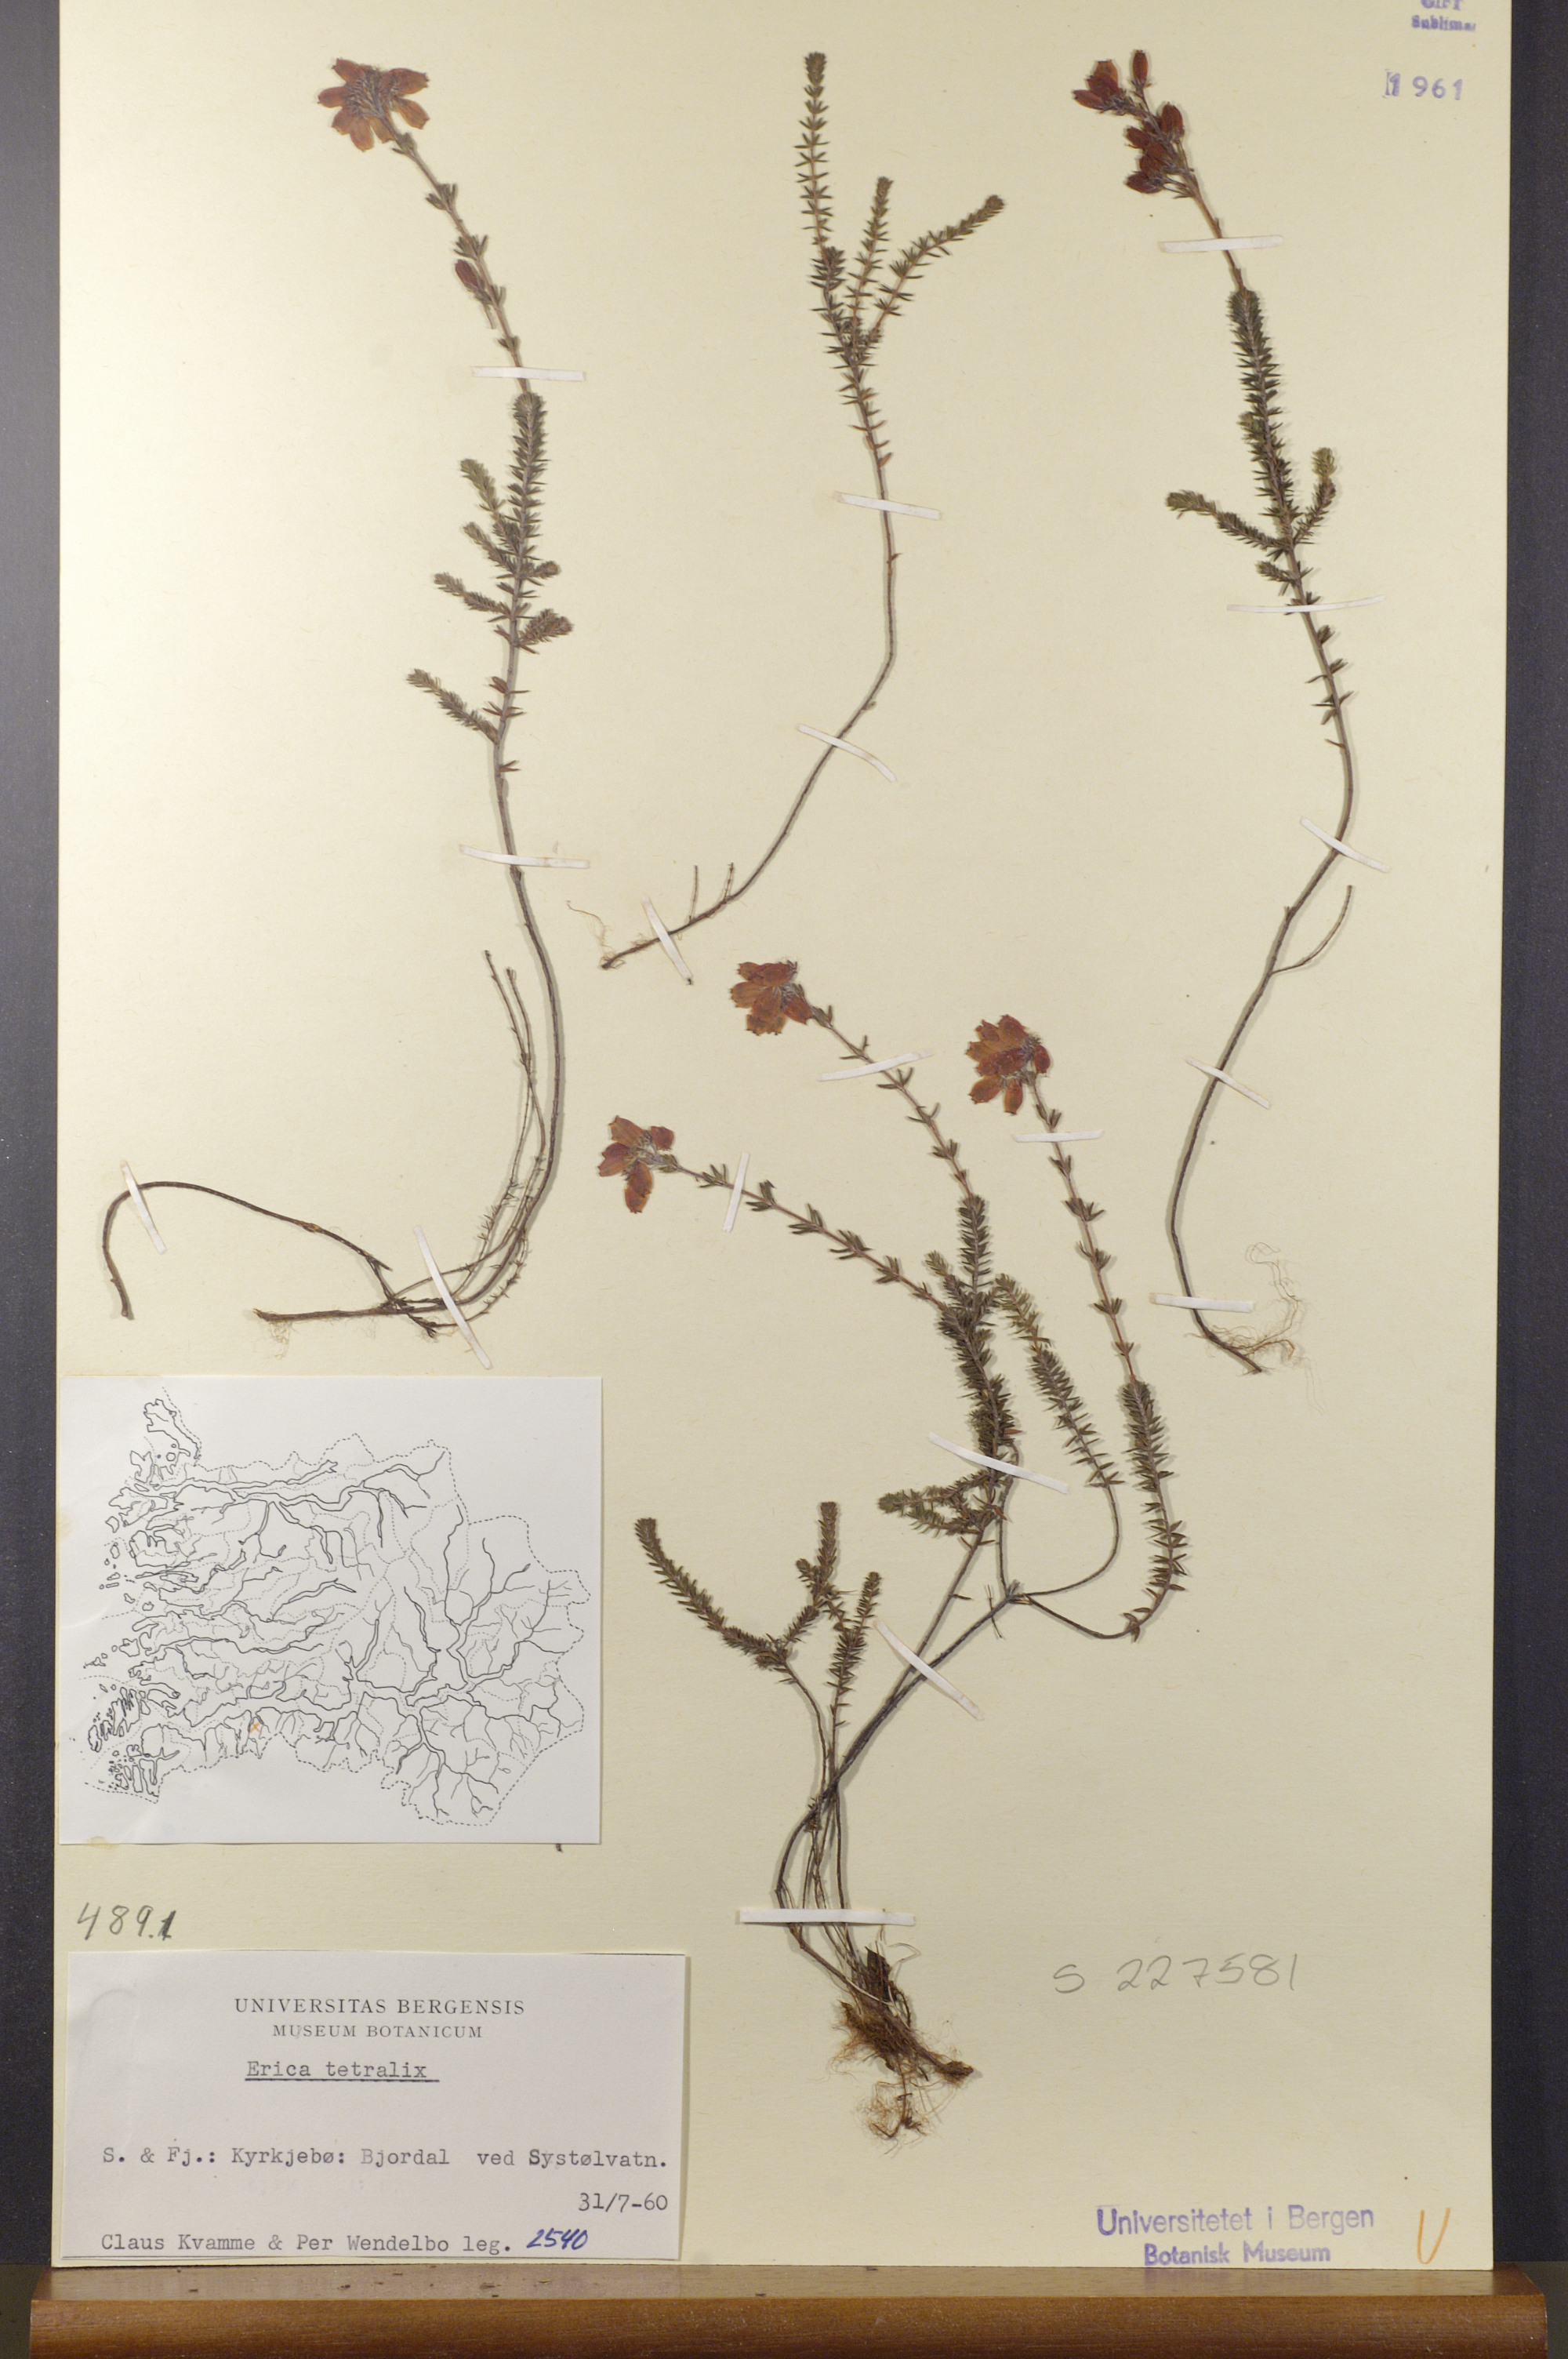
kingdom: Plantae
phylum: Tracheophyta
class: Magnoliopsida
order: Ericales
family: Ericaceae
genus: Erica
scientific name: Erica tetralix
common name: Cross-leaved heath
